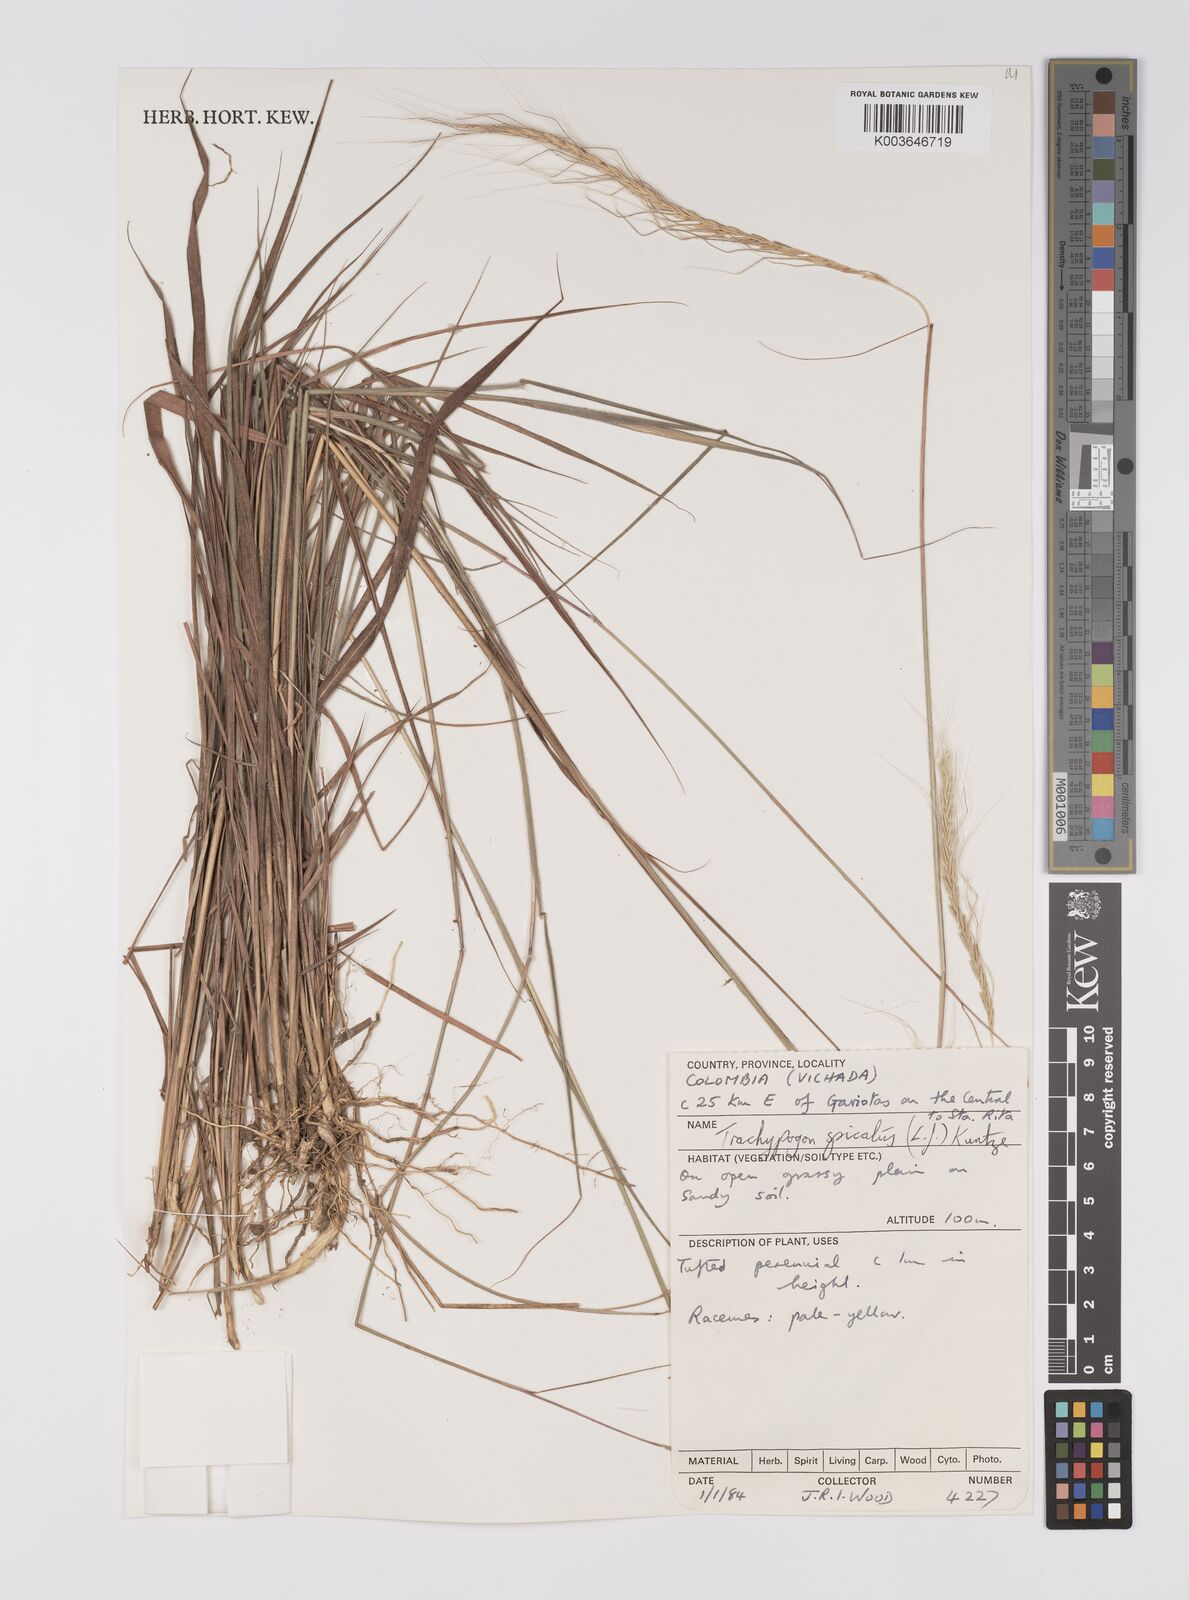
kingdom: Plantae
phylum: Tracheophyta
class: Liliopsida
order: Poales
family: Poaceae
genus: Trachypogon
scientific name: Trachypogon spicatus
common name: Crinkle-awn
